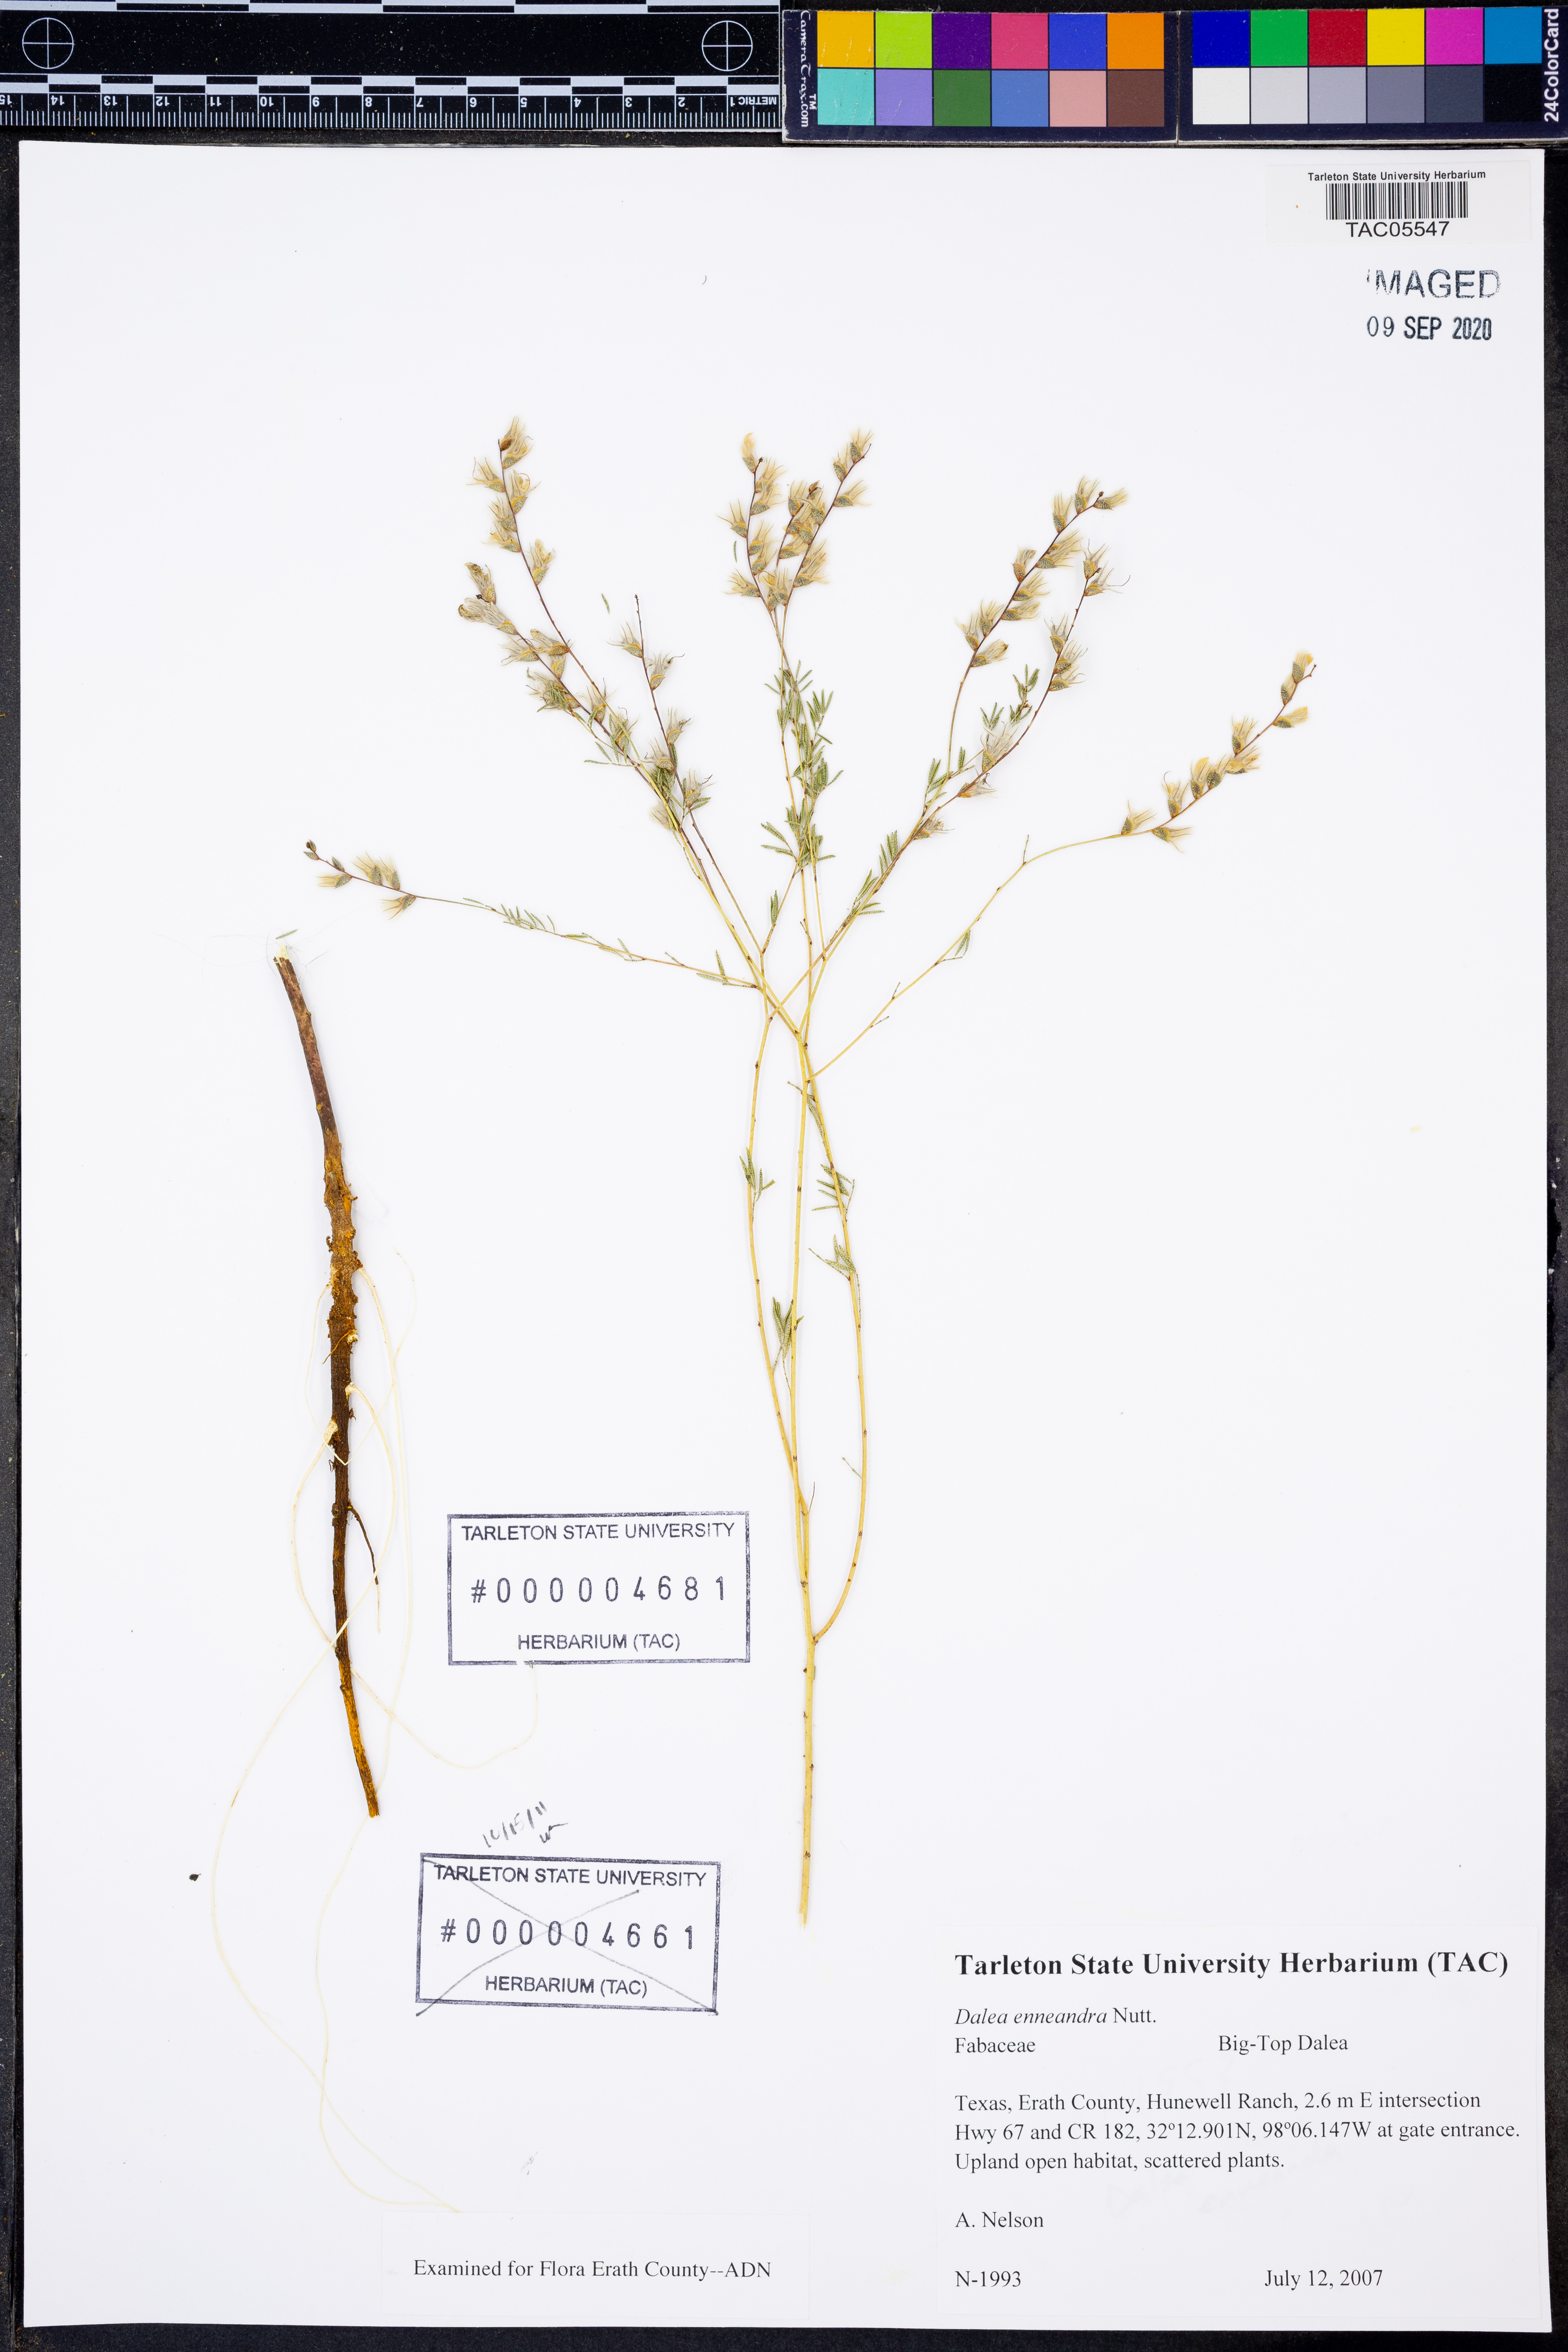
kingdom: Plantae
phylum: Tracheophyta
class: Magnoliopsida
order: Fabales
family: Fabaceae
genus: Dalea
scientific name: Dalea enneandra
